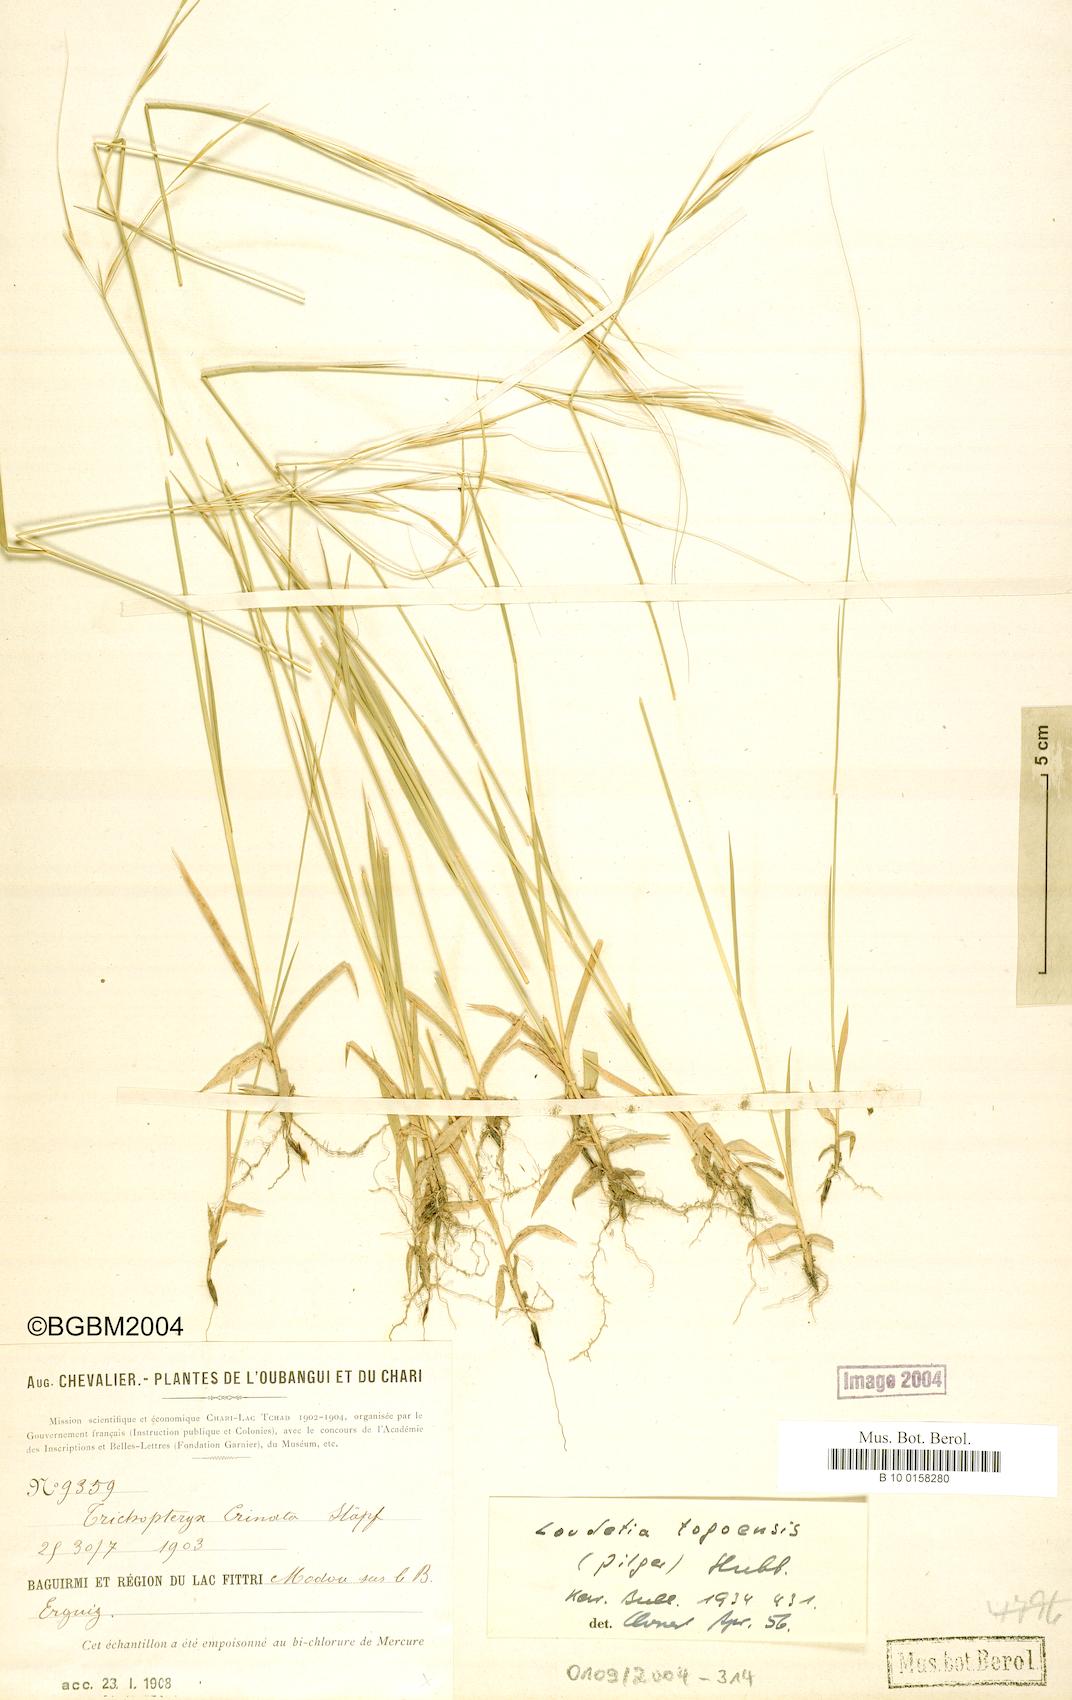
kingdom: Plantae
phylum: Tracheophyta
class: Liliopsida
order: Poales
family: Poaceae
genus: Loudetia
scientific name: Loudetia togoensis
